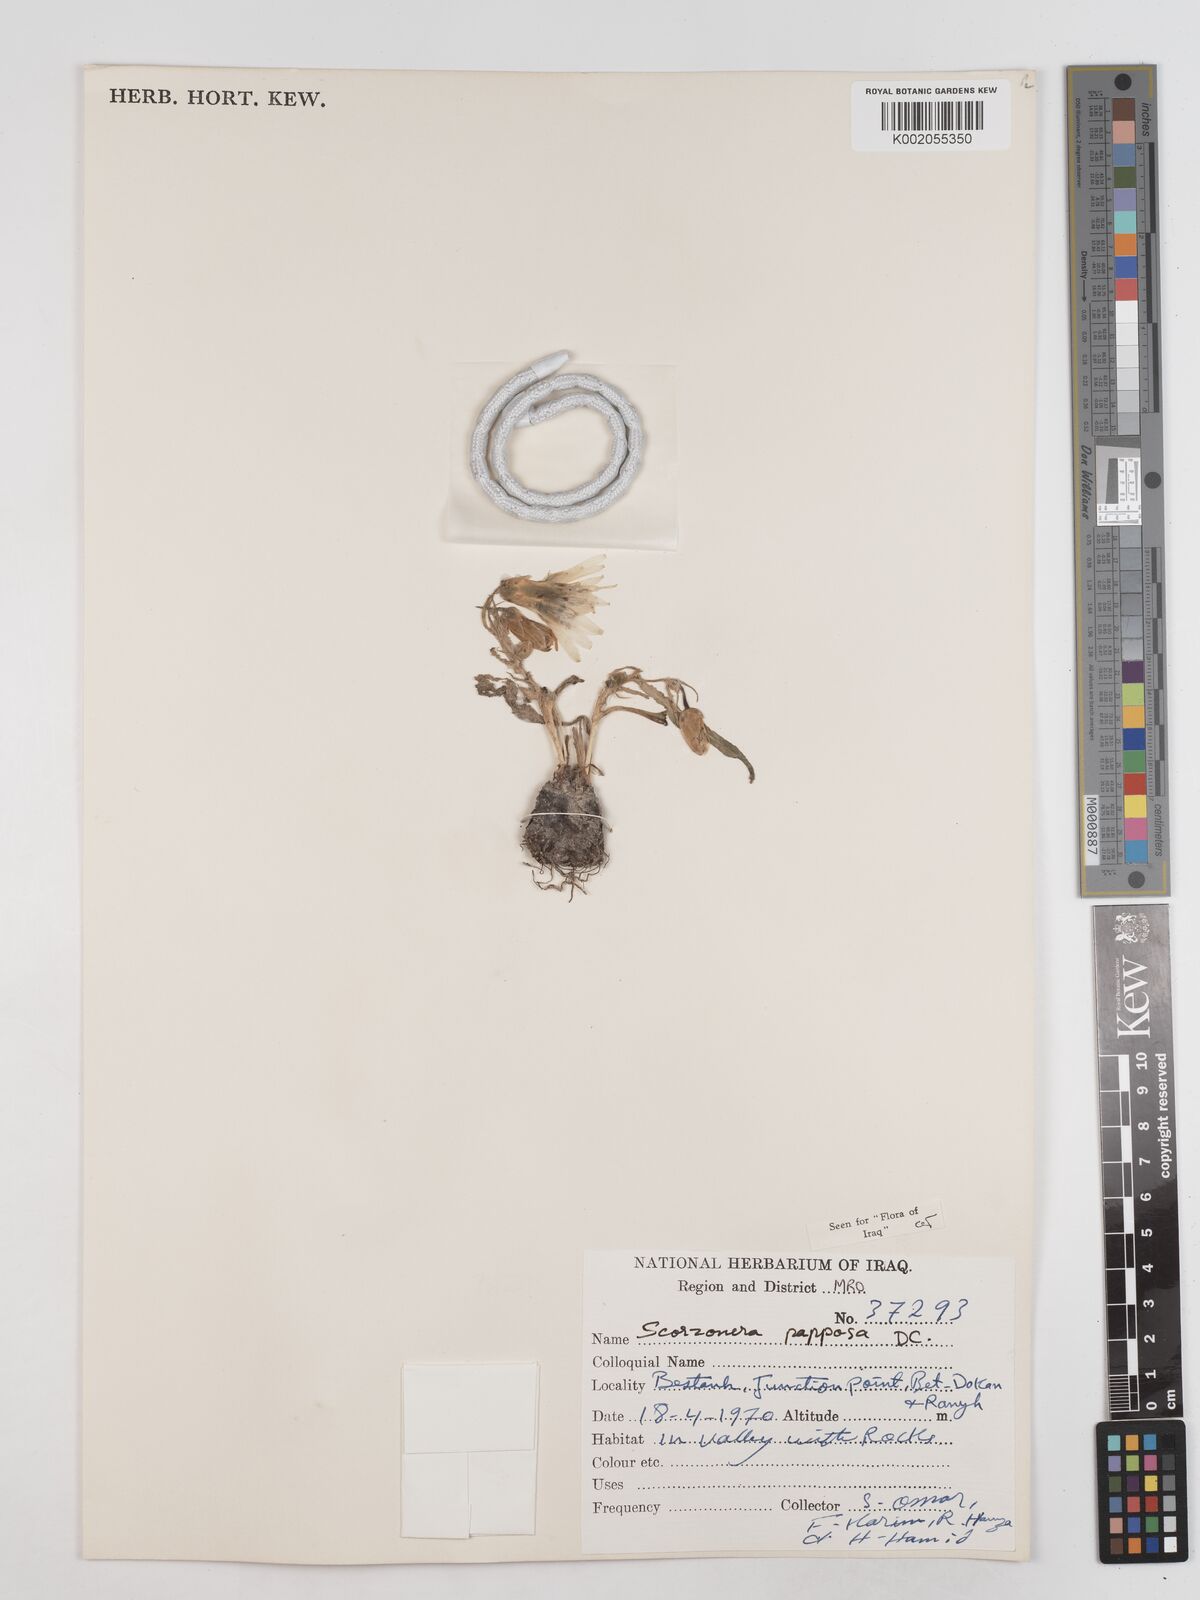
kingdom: Plantae
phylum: Tracheophyta
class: Magnoliopsida
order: Asterales
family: Asteraceae
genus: Pseudopodospermum
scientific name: Pseudopodospermum papposum
